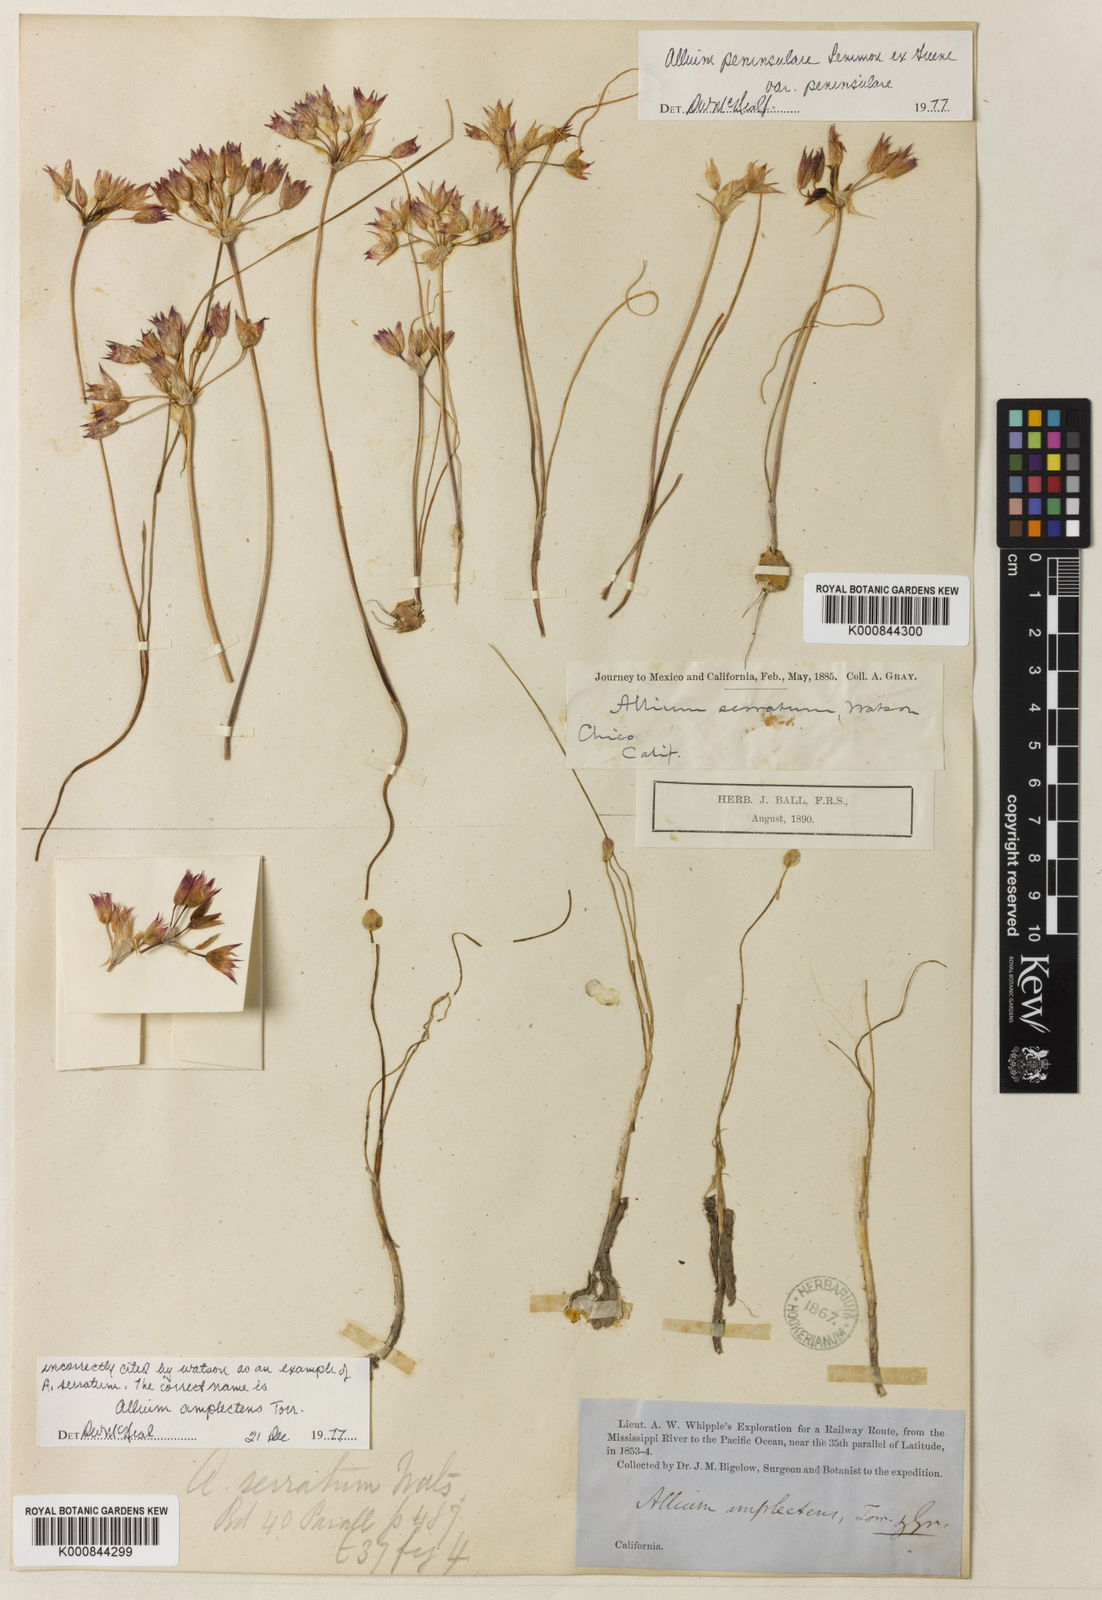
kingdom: Plantae
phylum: Tracheophyta
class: Liliopsida
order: Asparagales
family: Amaryllidaceae
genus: Allium
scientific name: Allium peninsulare
